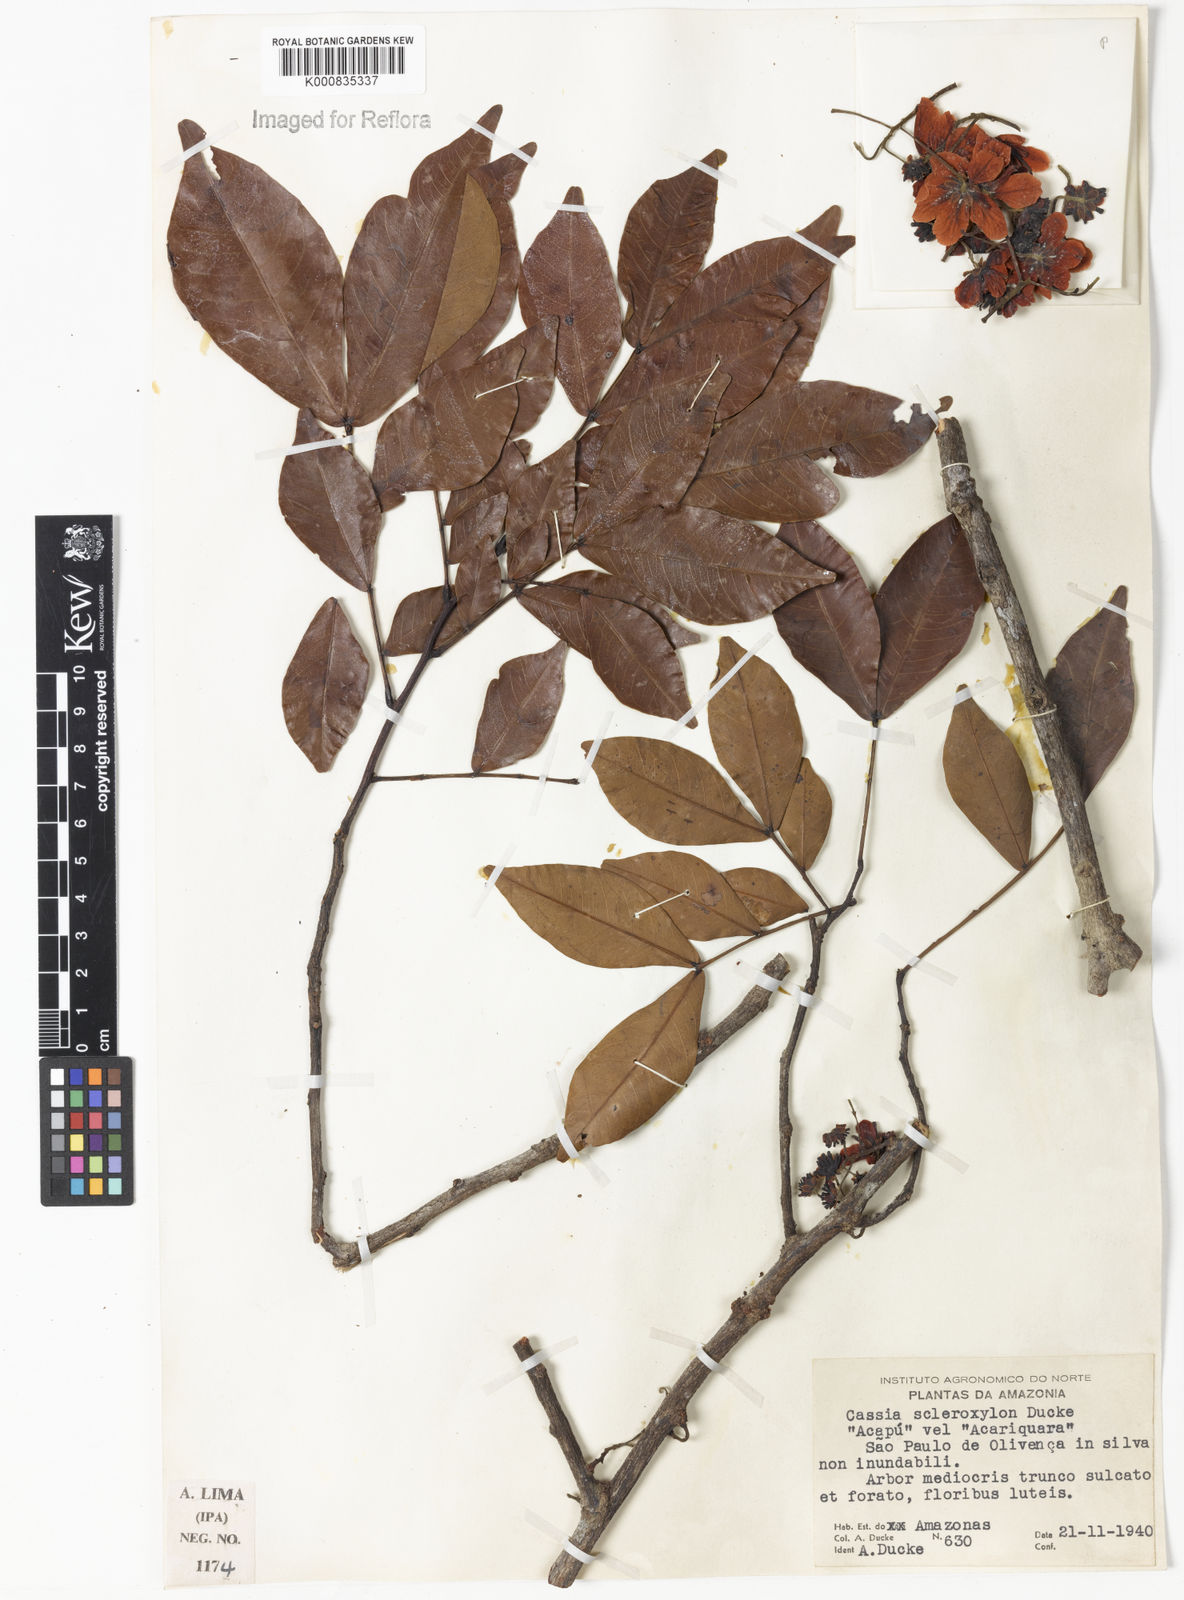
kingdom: Plantae
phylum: Tracheophyta
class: Magnoliopsida
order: Fabales
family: Fabaceae
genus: Chamaecrista
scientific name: Chamaecrista scleroxylon
